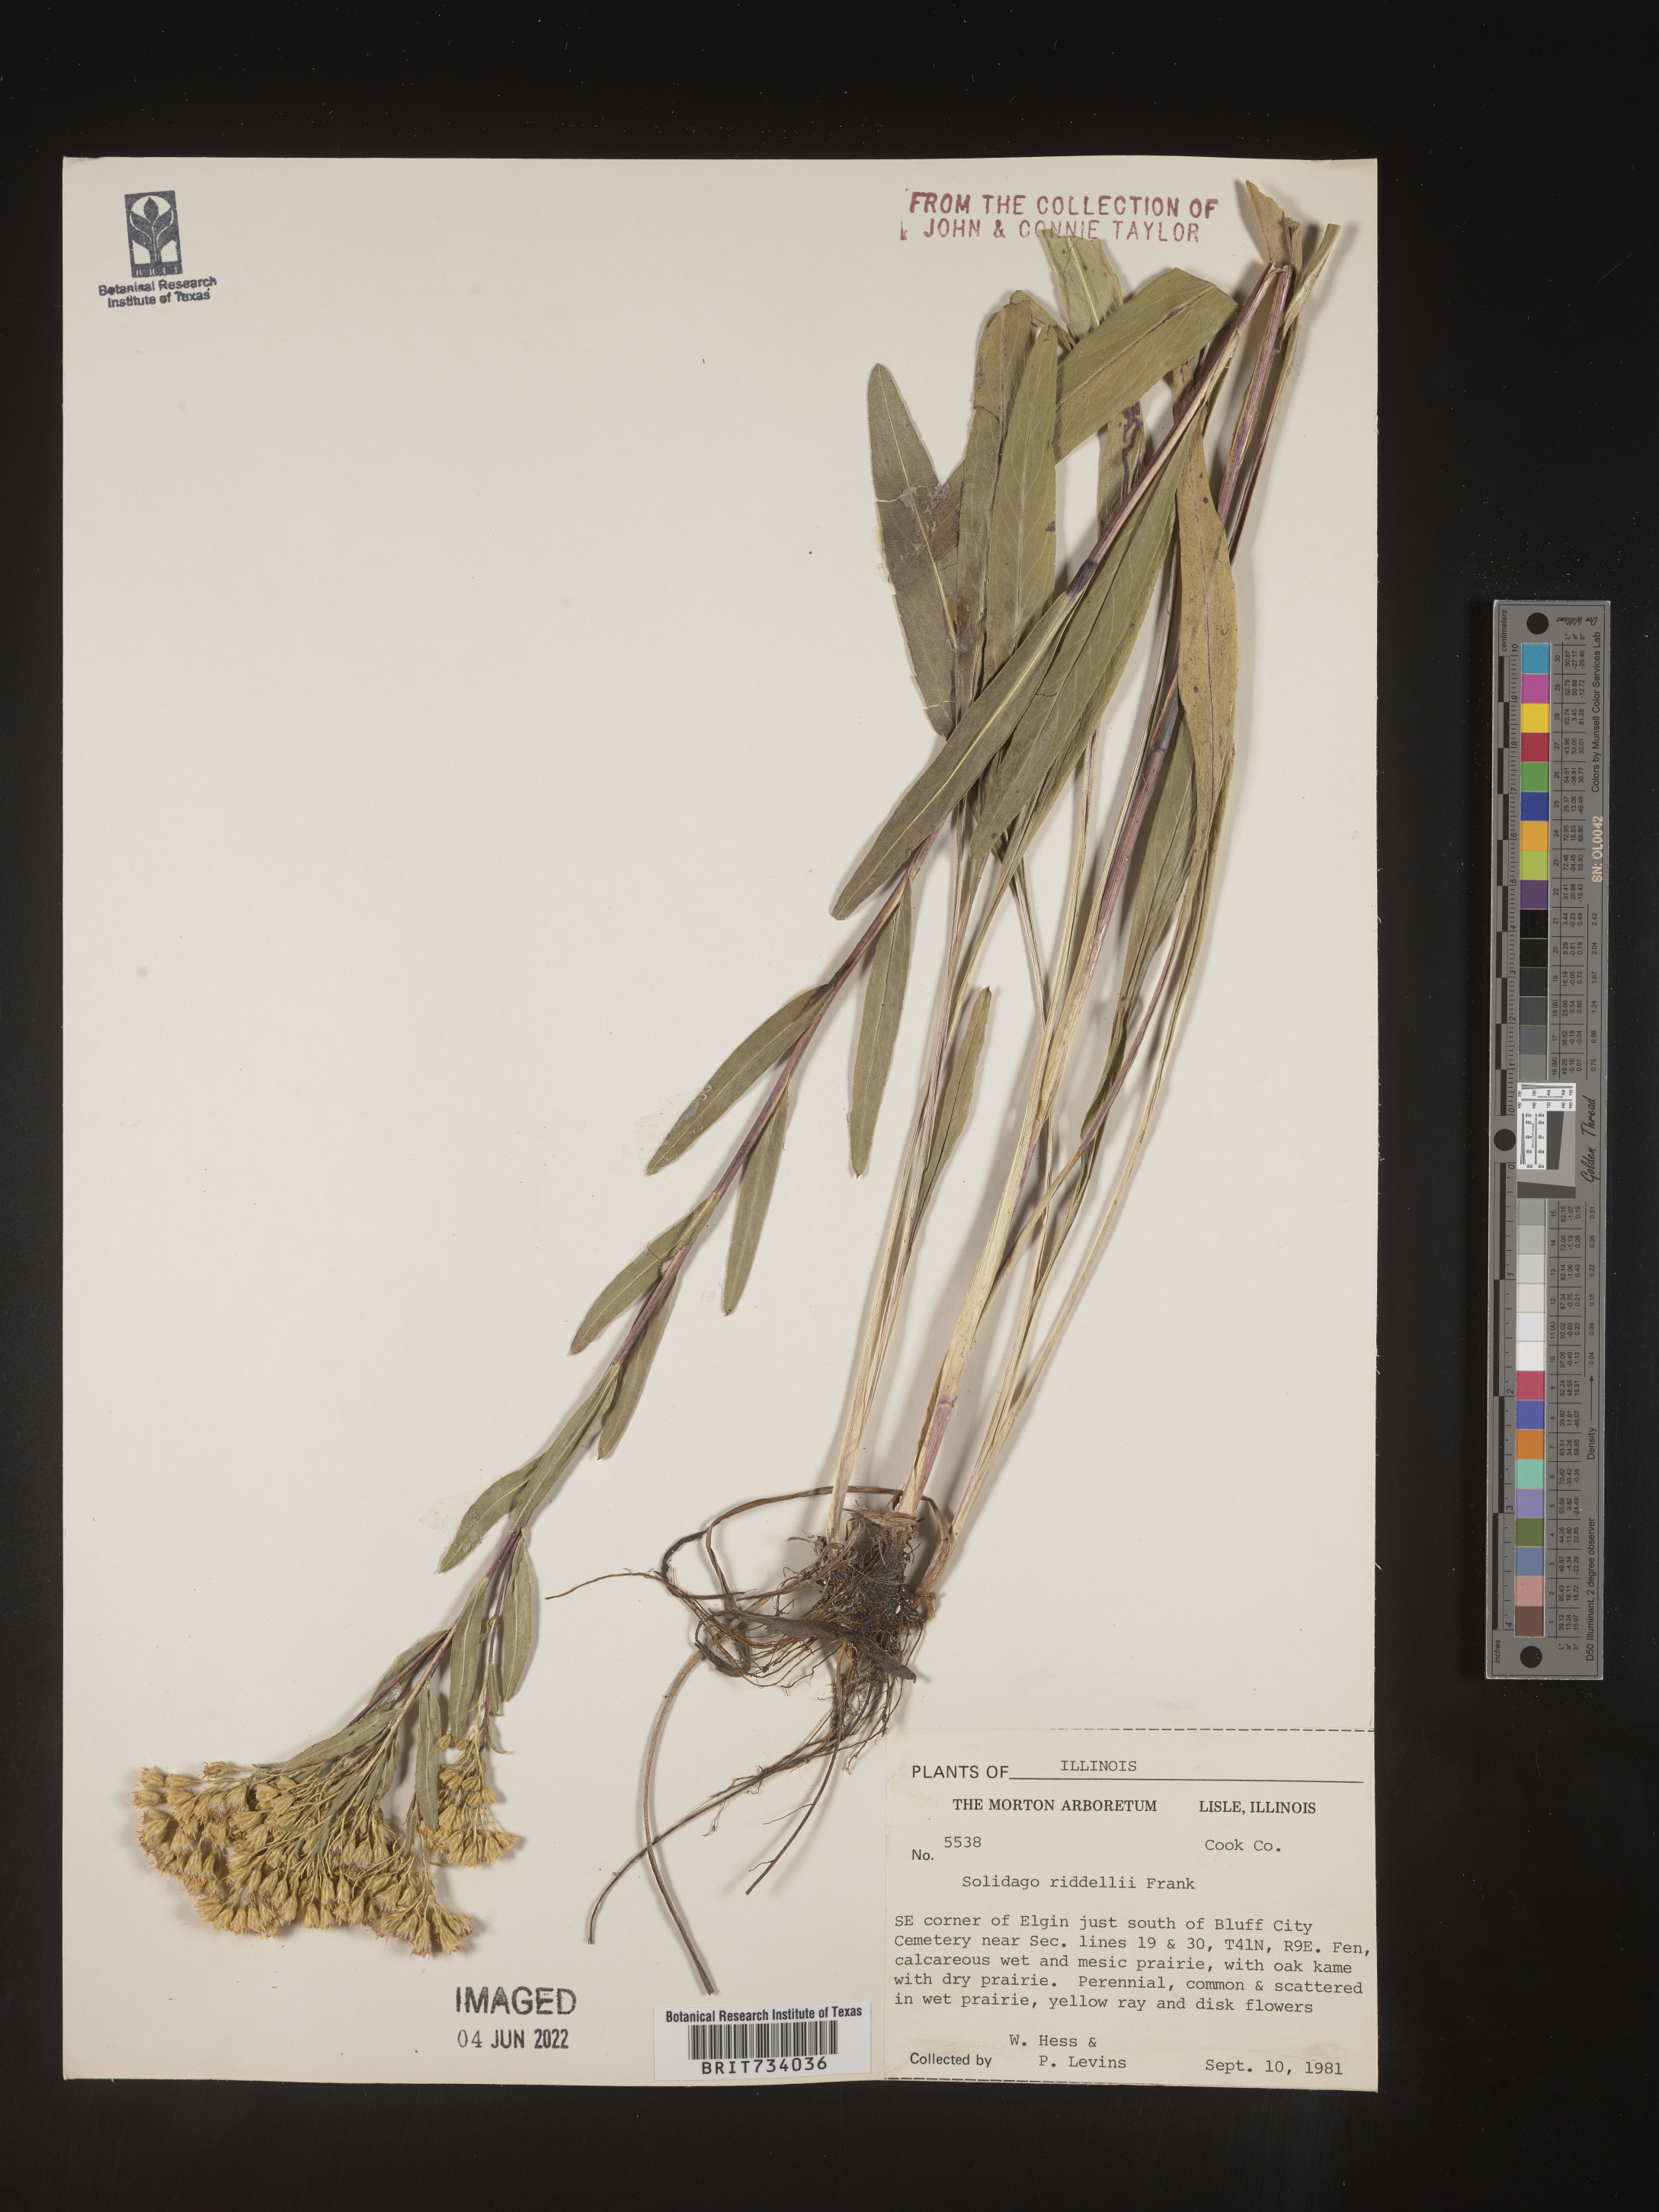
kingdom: Plantae
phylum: Tracheophyta
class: Magnoliopsida
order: Asterales
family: Asteraceae
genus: Solidago
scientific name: Solidago riddellii
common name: Riddell's goldenrod
